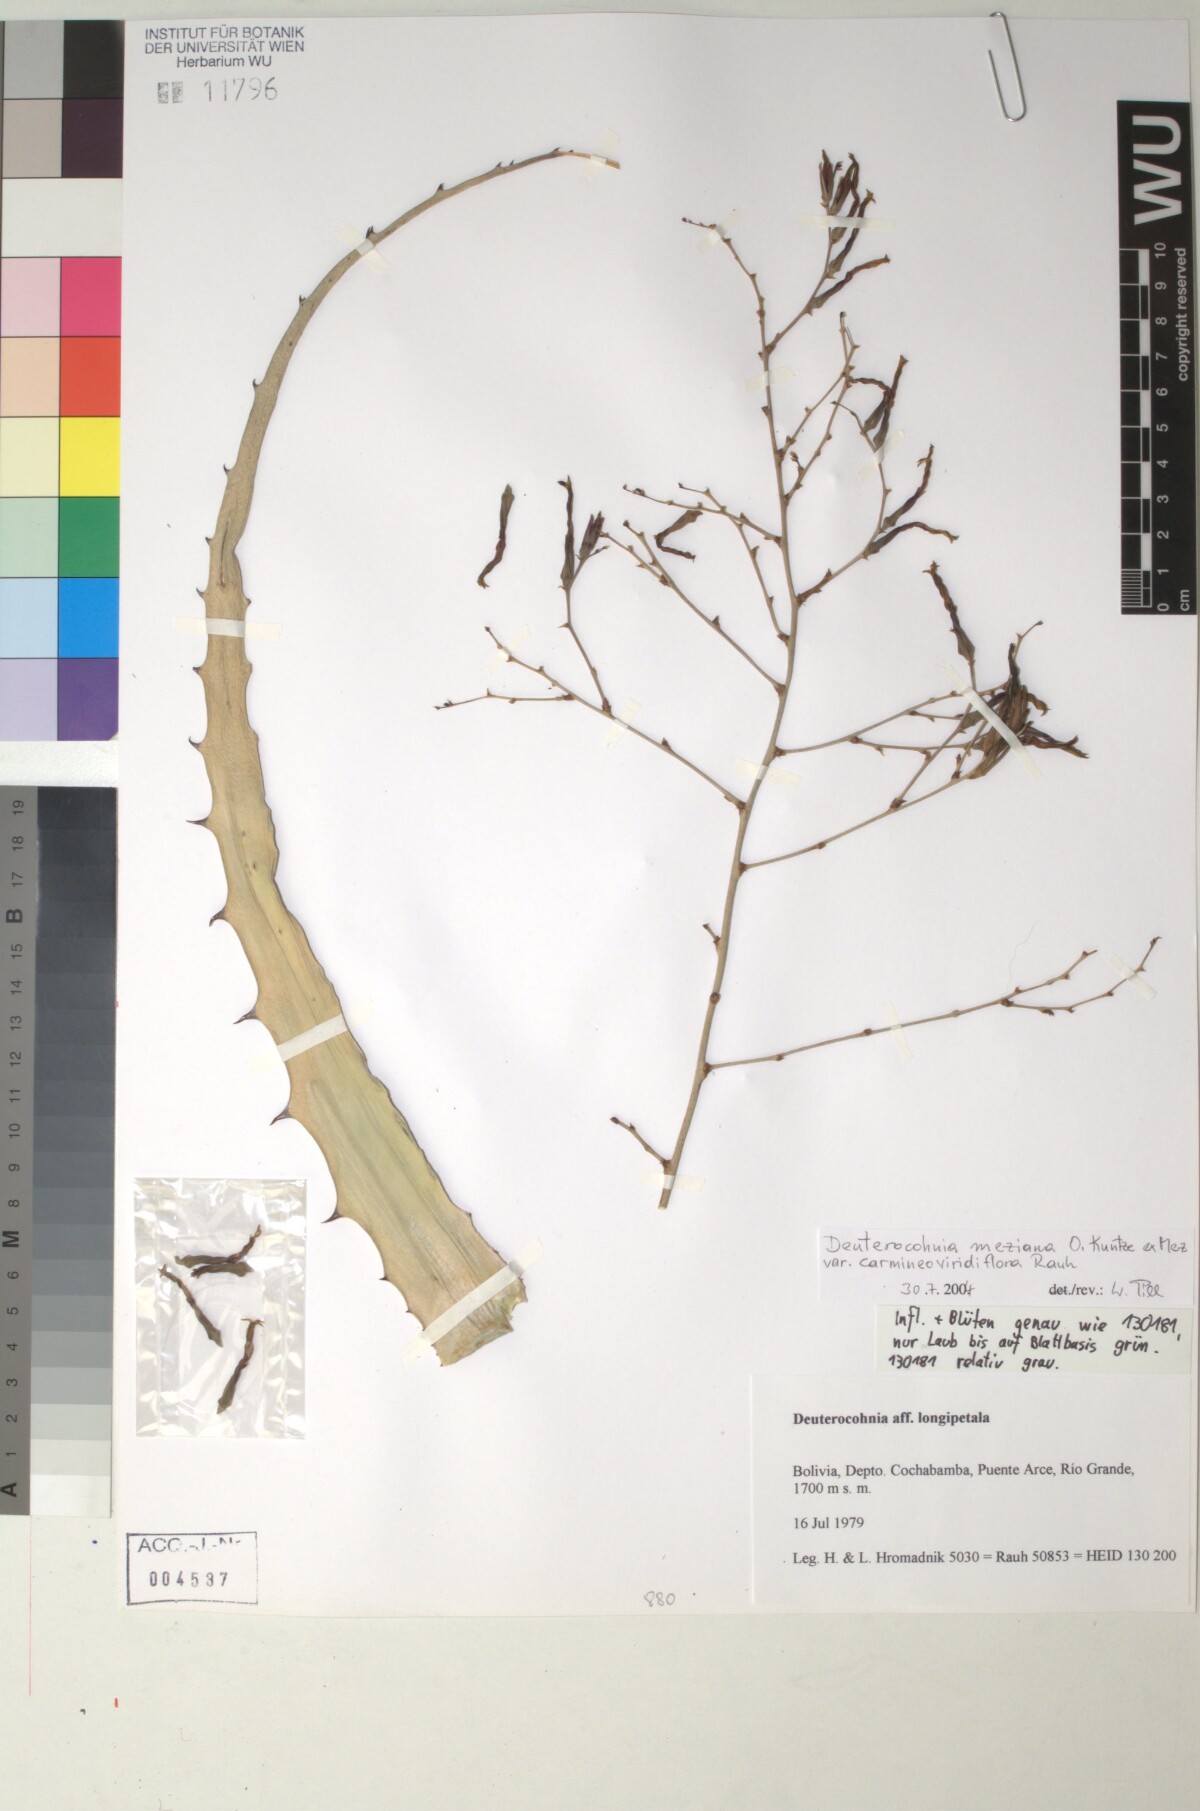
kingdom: Plantae
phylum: Tracheophyta
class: Liliopsida
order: Poales
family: Bromeliaceae
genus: Deuterocohnia
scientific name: Deuterocohnia meziana
